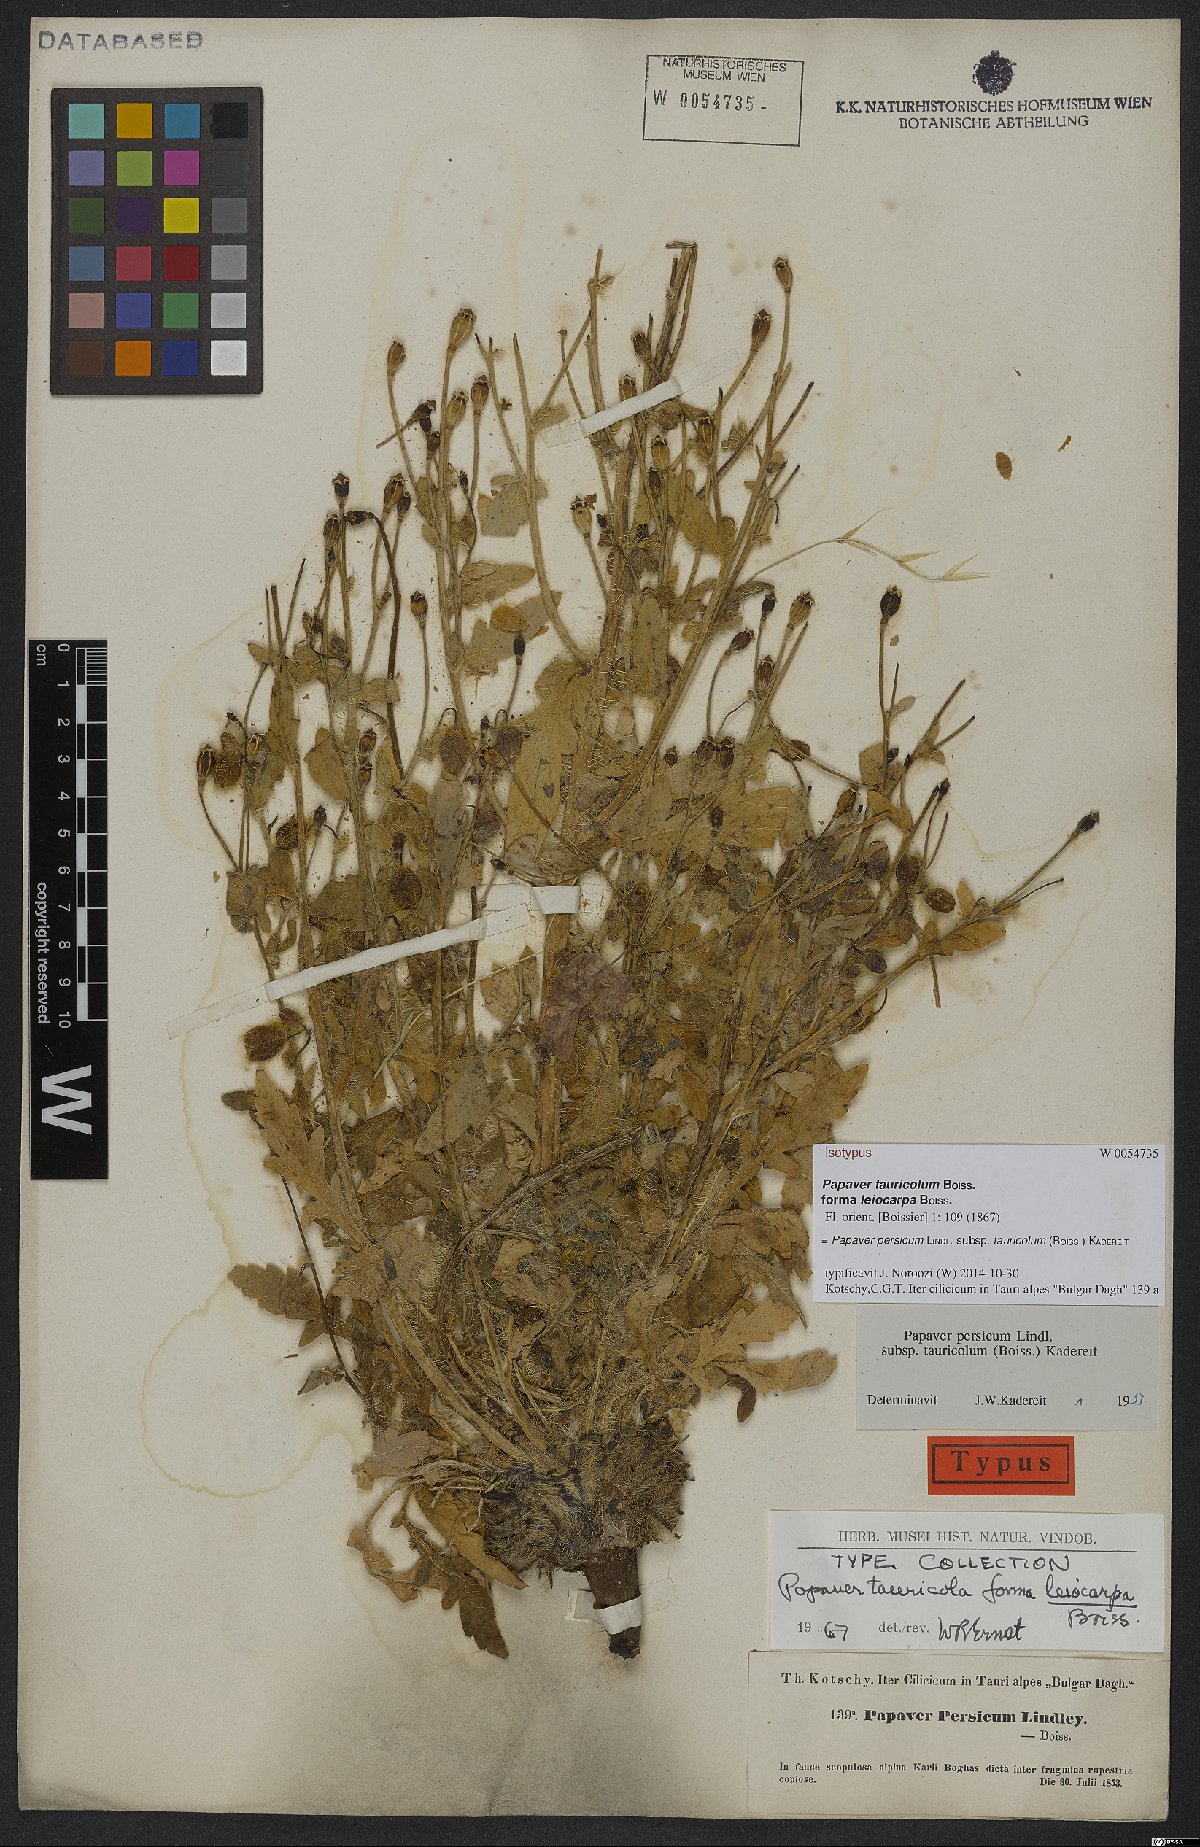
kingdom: Plantae
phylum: Tracheophyta
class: Magnoliopsida
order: Ranunculales
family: Papaveraceae
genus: Papaver
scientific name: Papaver persicum
